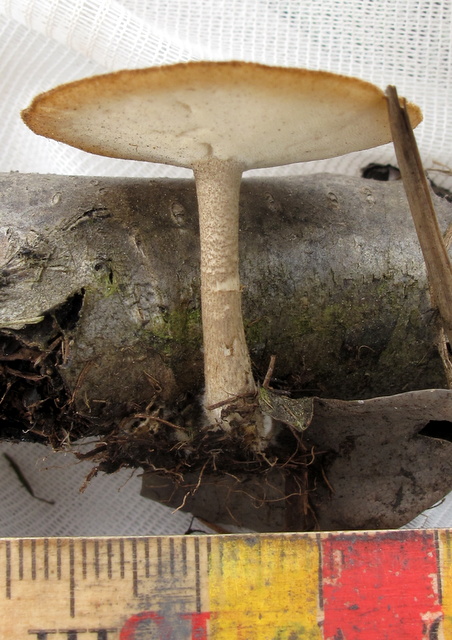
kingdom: Fungi
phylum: Basidiomycota
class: Agaricomycetes
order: Polyporales
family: Polyporaceae
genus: Lentinus
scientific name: Lentinus substrictus
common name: forårs-stilkporesvamp
